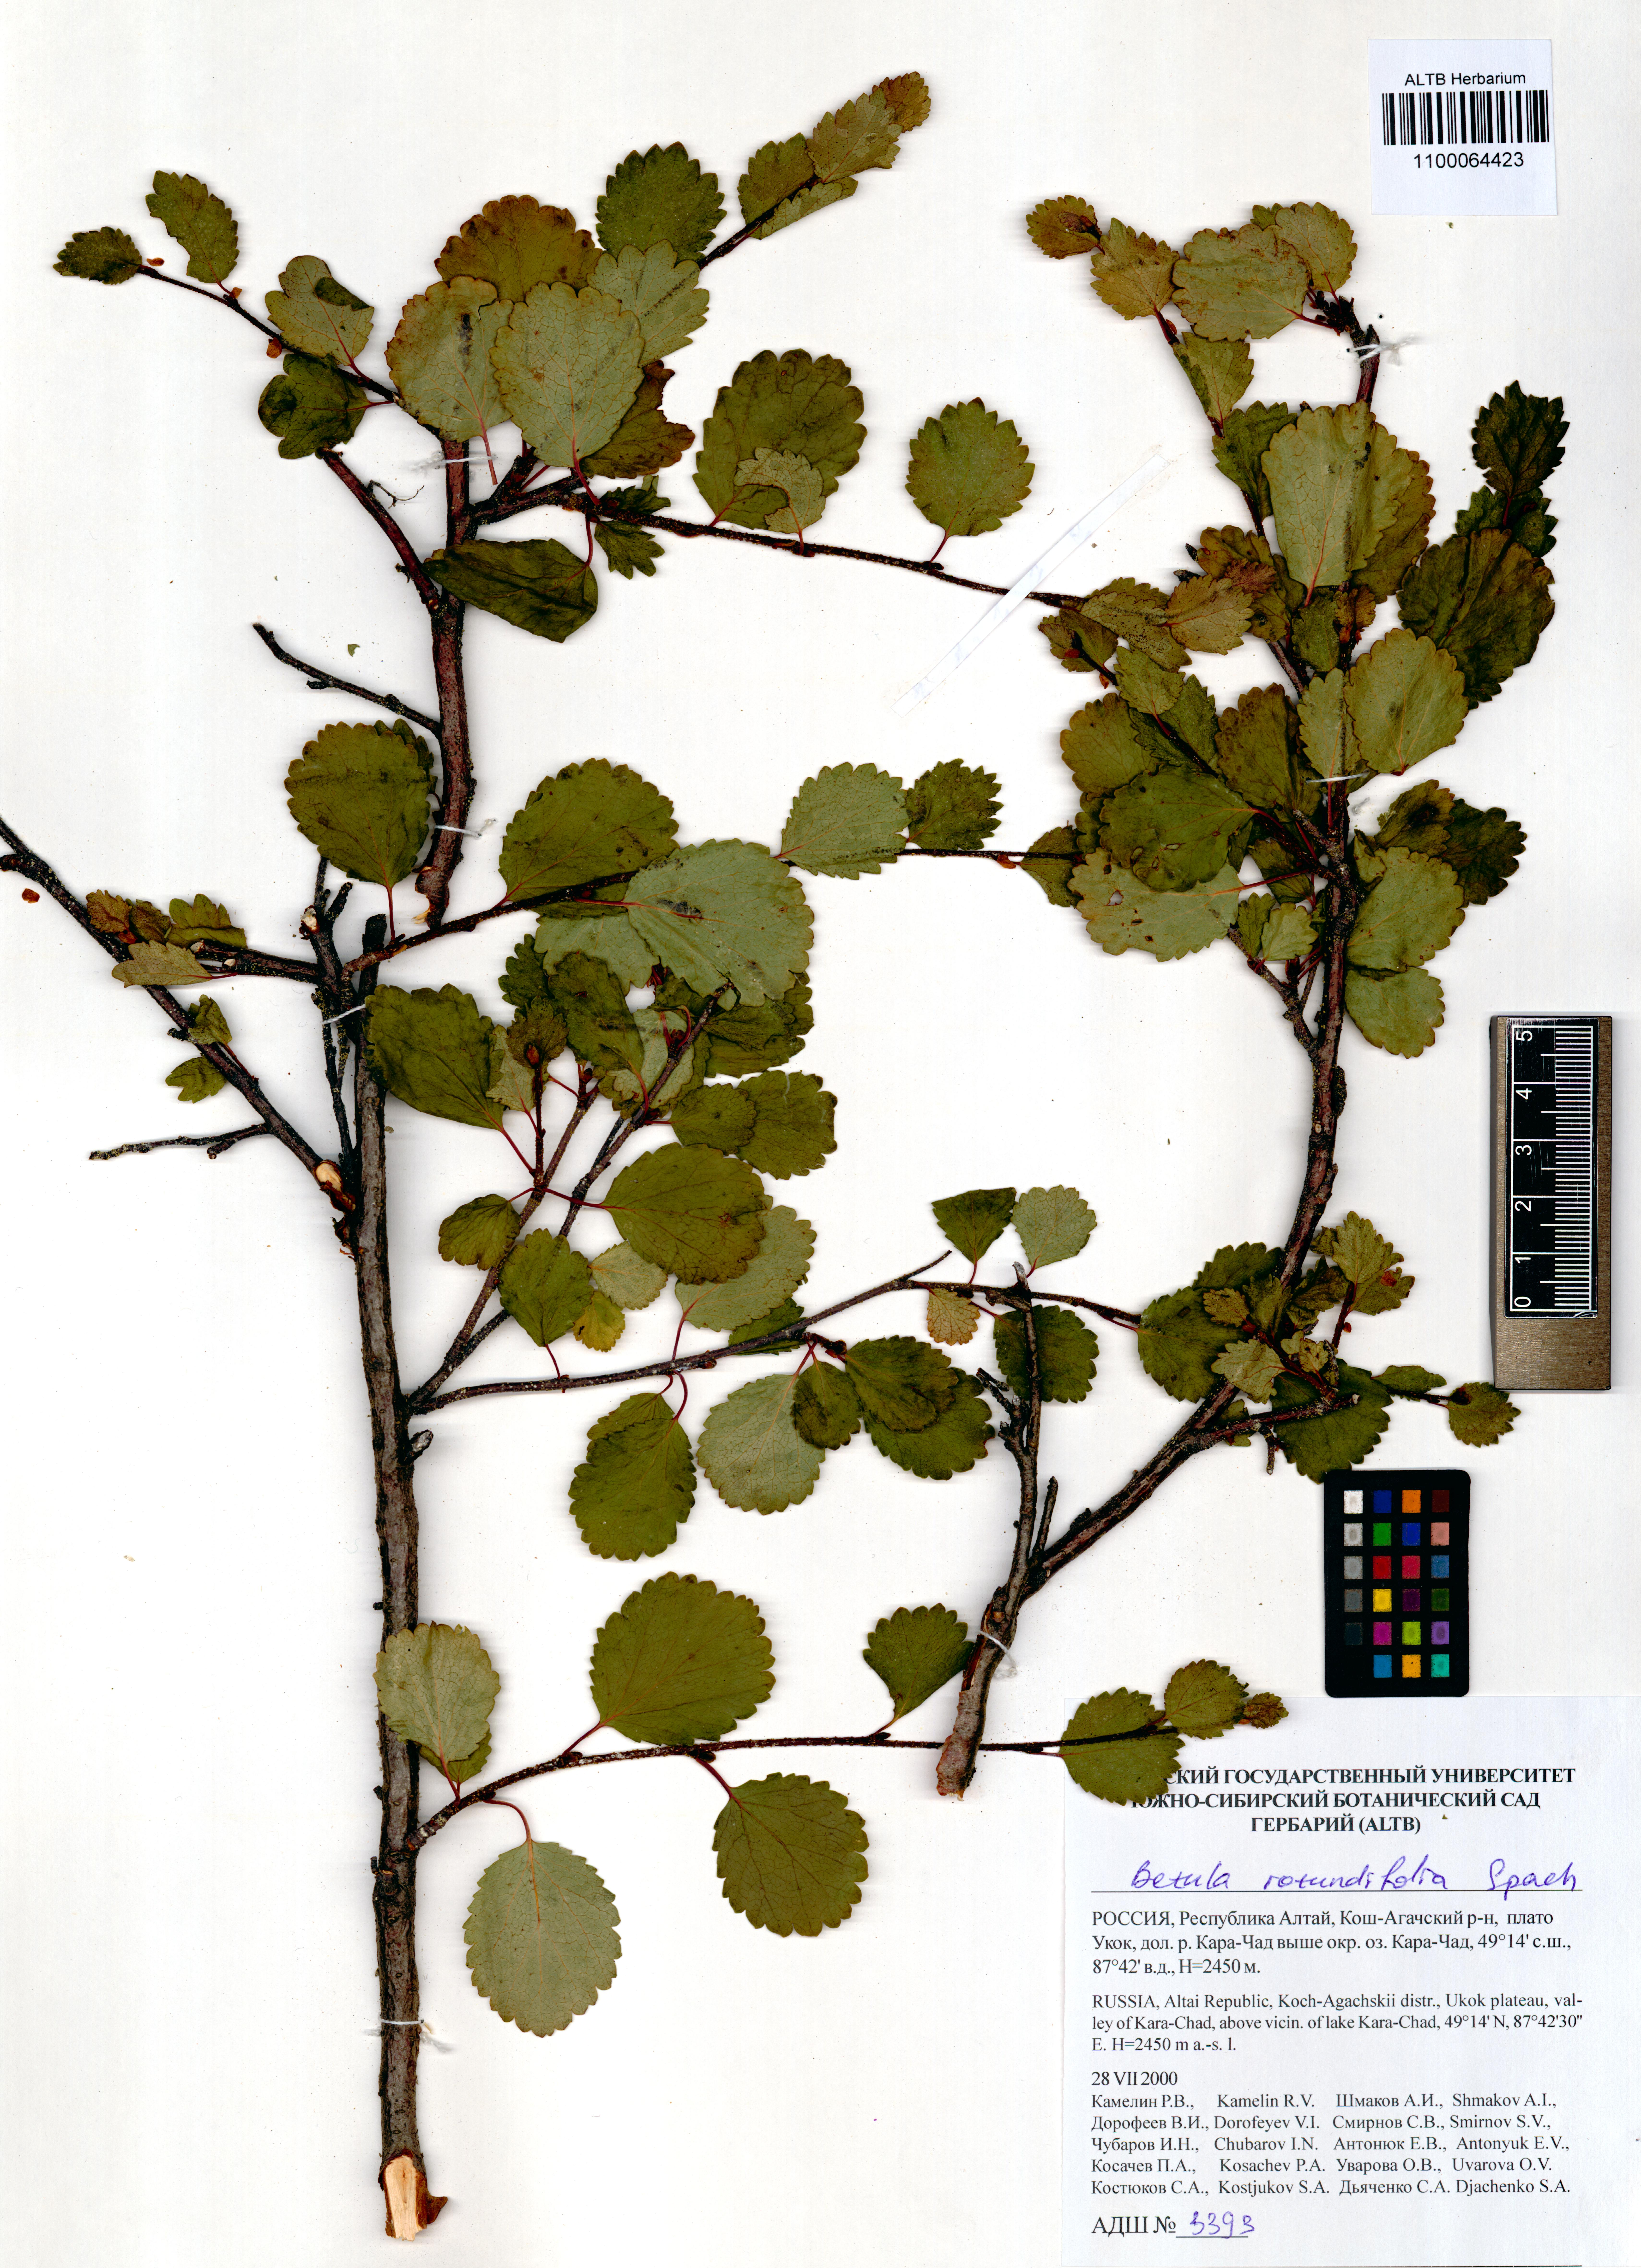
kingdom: Plantae
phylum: Tracheophyta
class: Magnoliopsida
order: Fagales
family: Betulaceae
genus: Betula
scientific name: Betula glandulosa
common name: Dwarf birch
